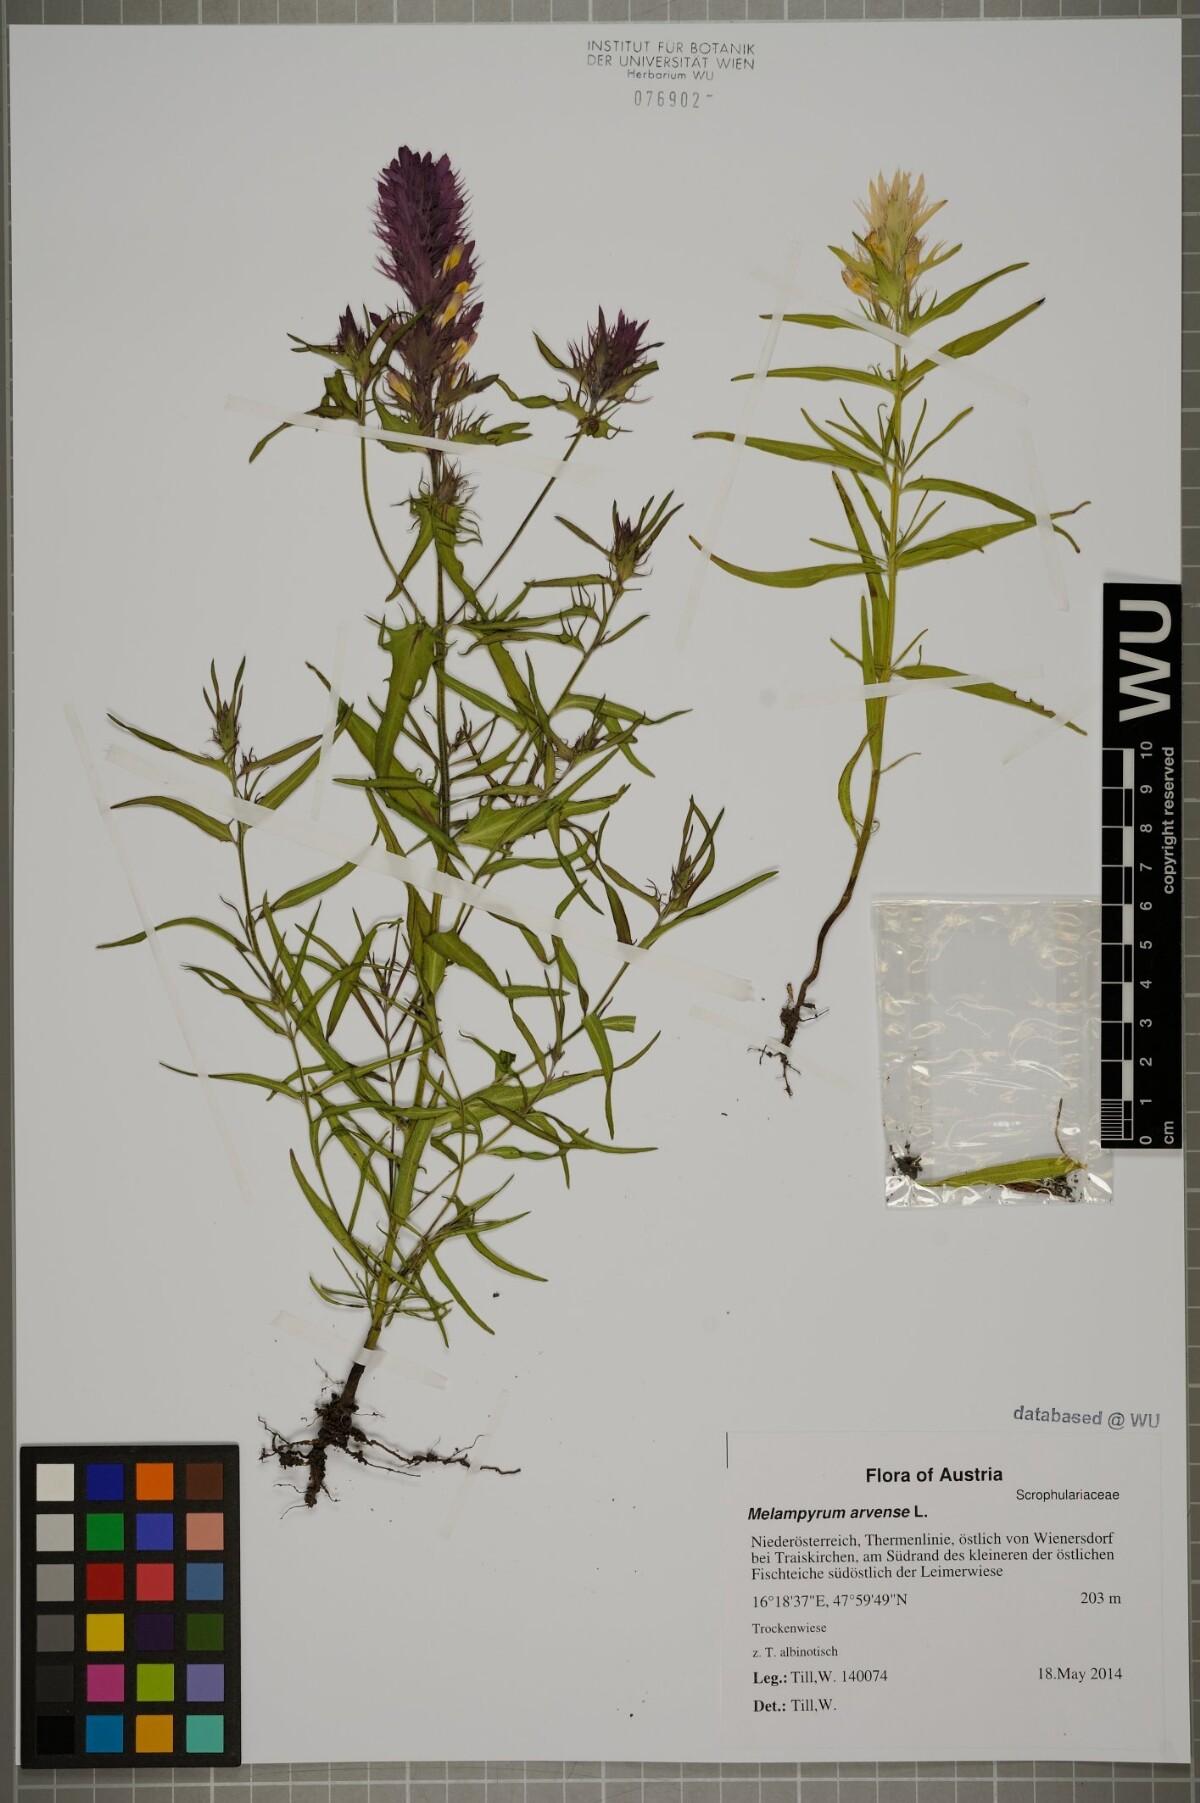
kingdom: Plantae
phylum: Tracheophyta
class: Magnoliopsida
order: Lamiales
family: Orobanchaceae
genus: Melampyrum
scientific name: Melampyrum arvense
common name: Field cow-wheat
